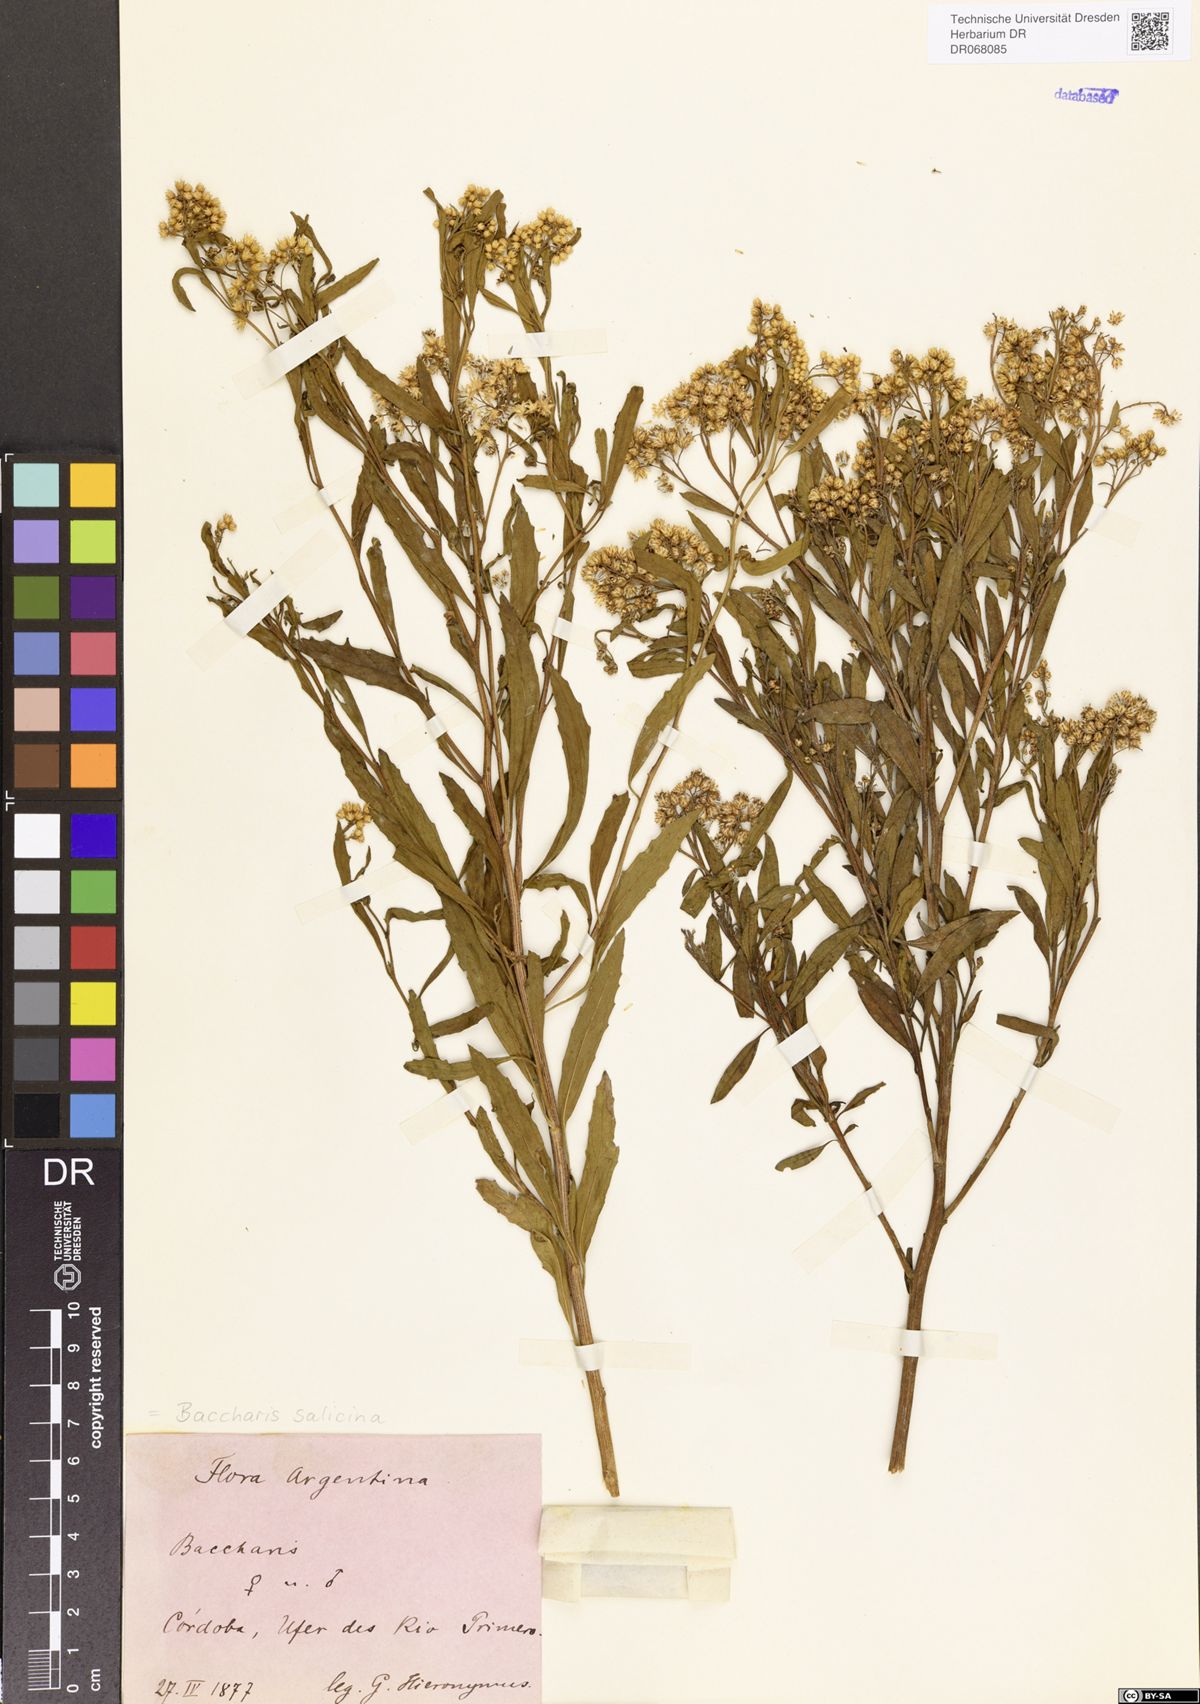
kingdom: Plantae
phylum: Tracheophyta
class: Magnoliopsida
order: Asterales
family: Asteraceae
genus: Baccharis
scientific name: Baccharis salicina
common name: Willow baccharis
